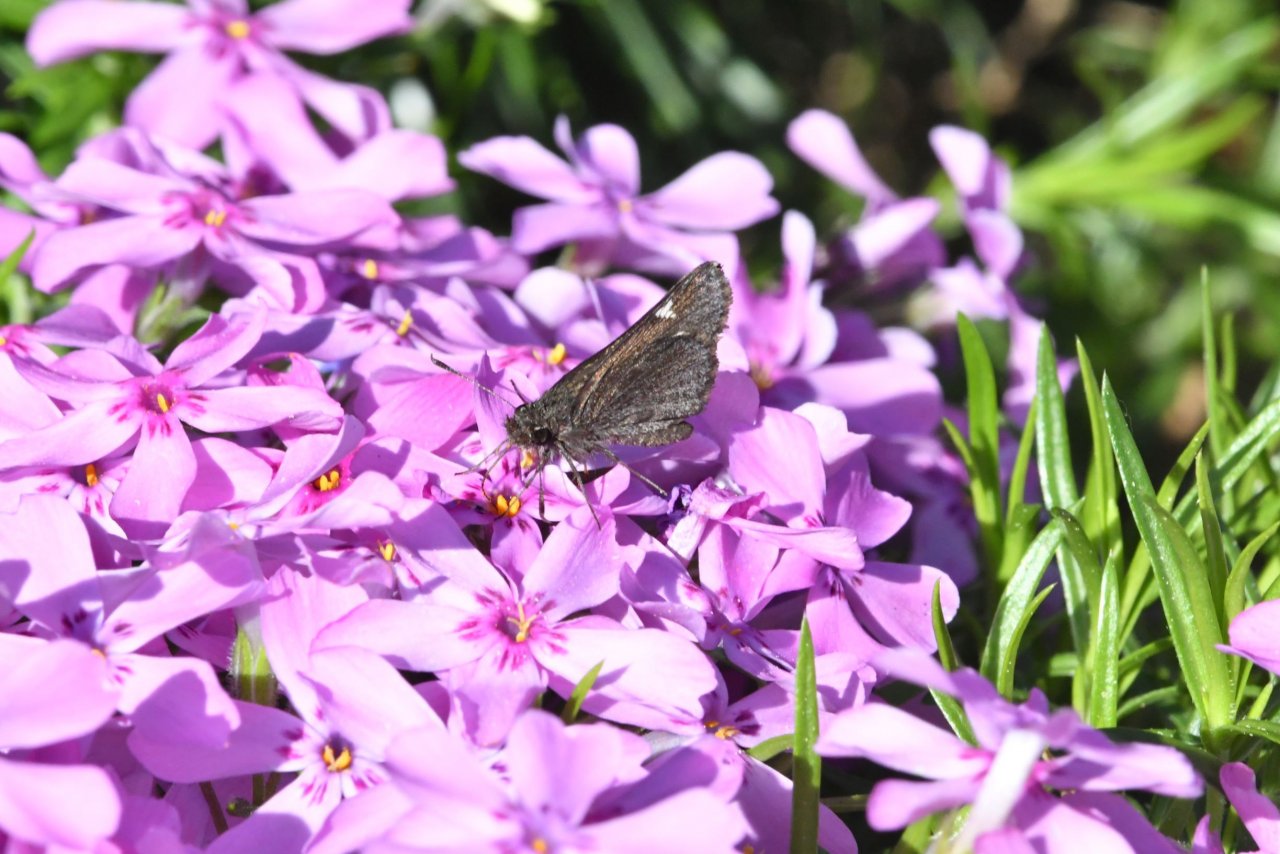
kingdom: Animalia
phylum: Arthropoda
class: Insecta
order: Lepidoptera
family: Hesperiidae
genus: Mastor
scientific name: Mastor vialis
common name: Common Roadside-Skipper
